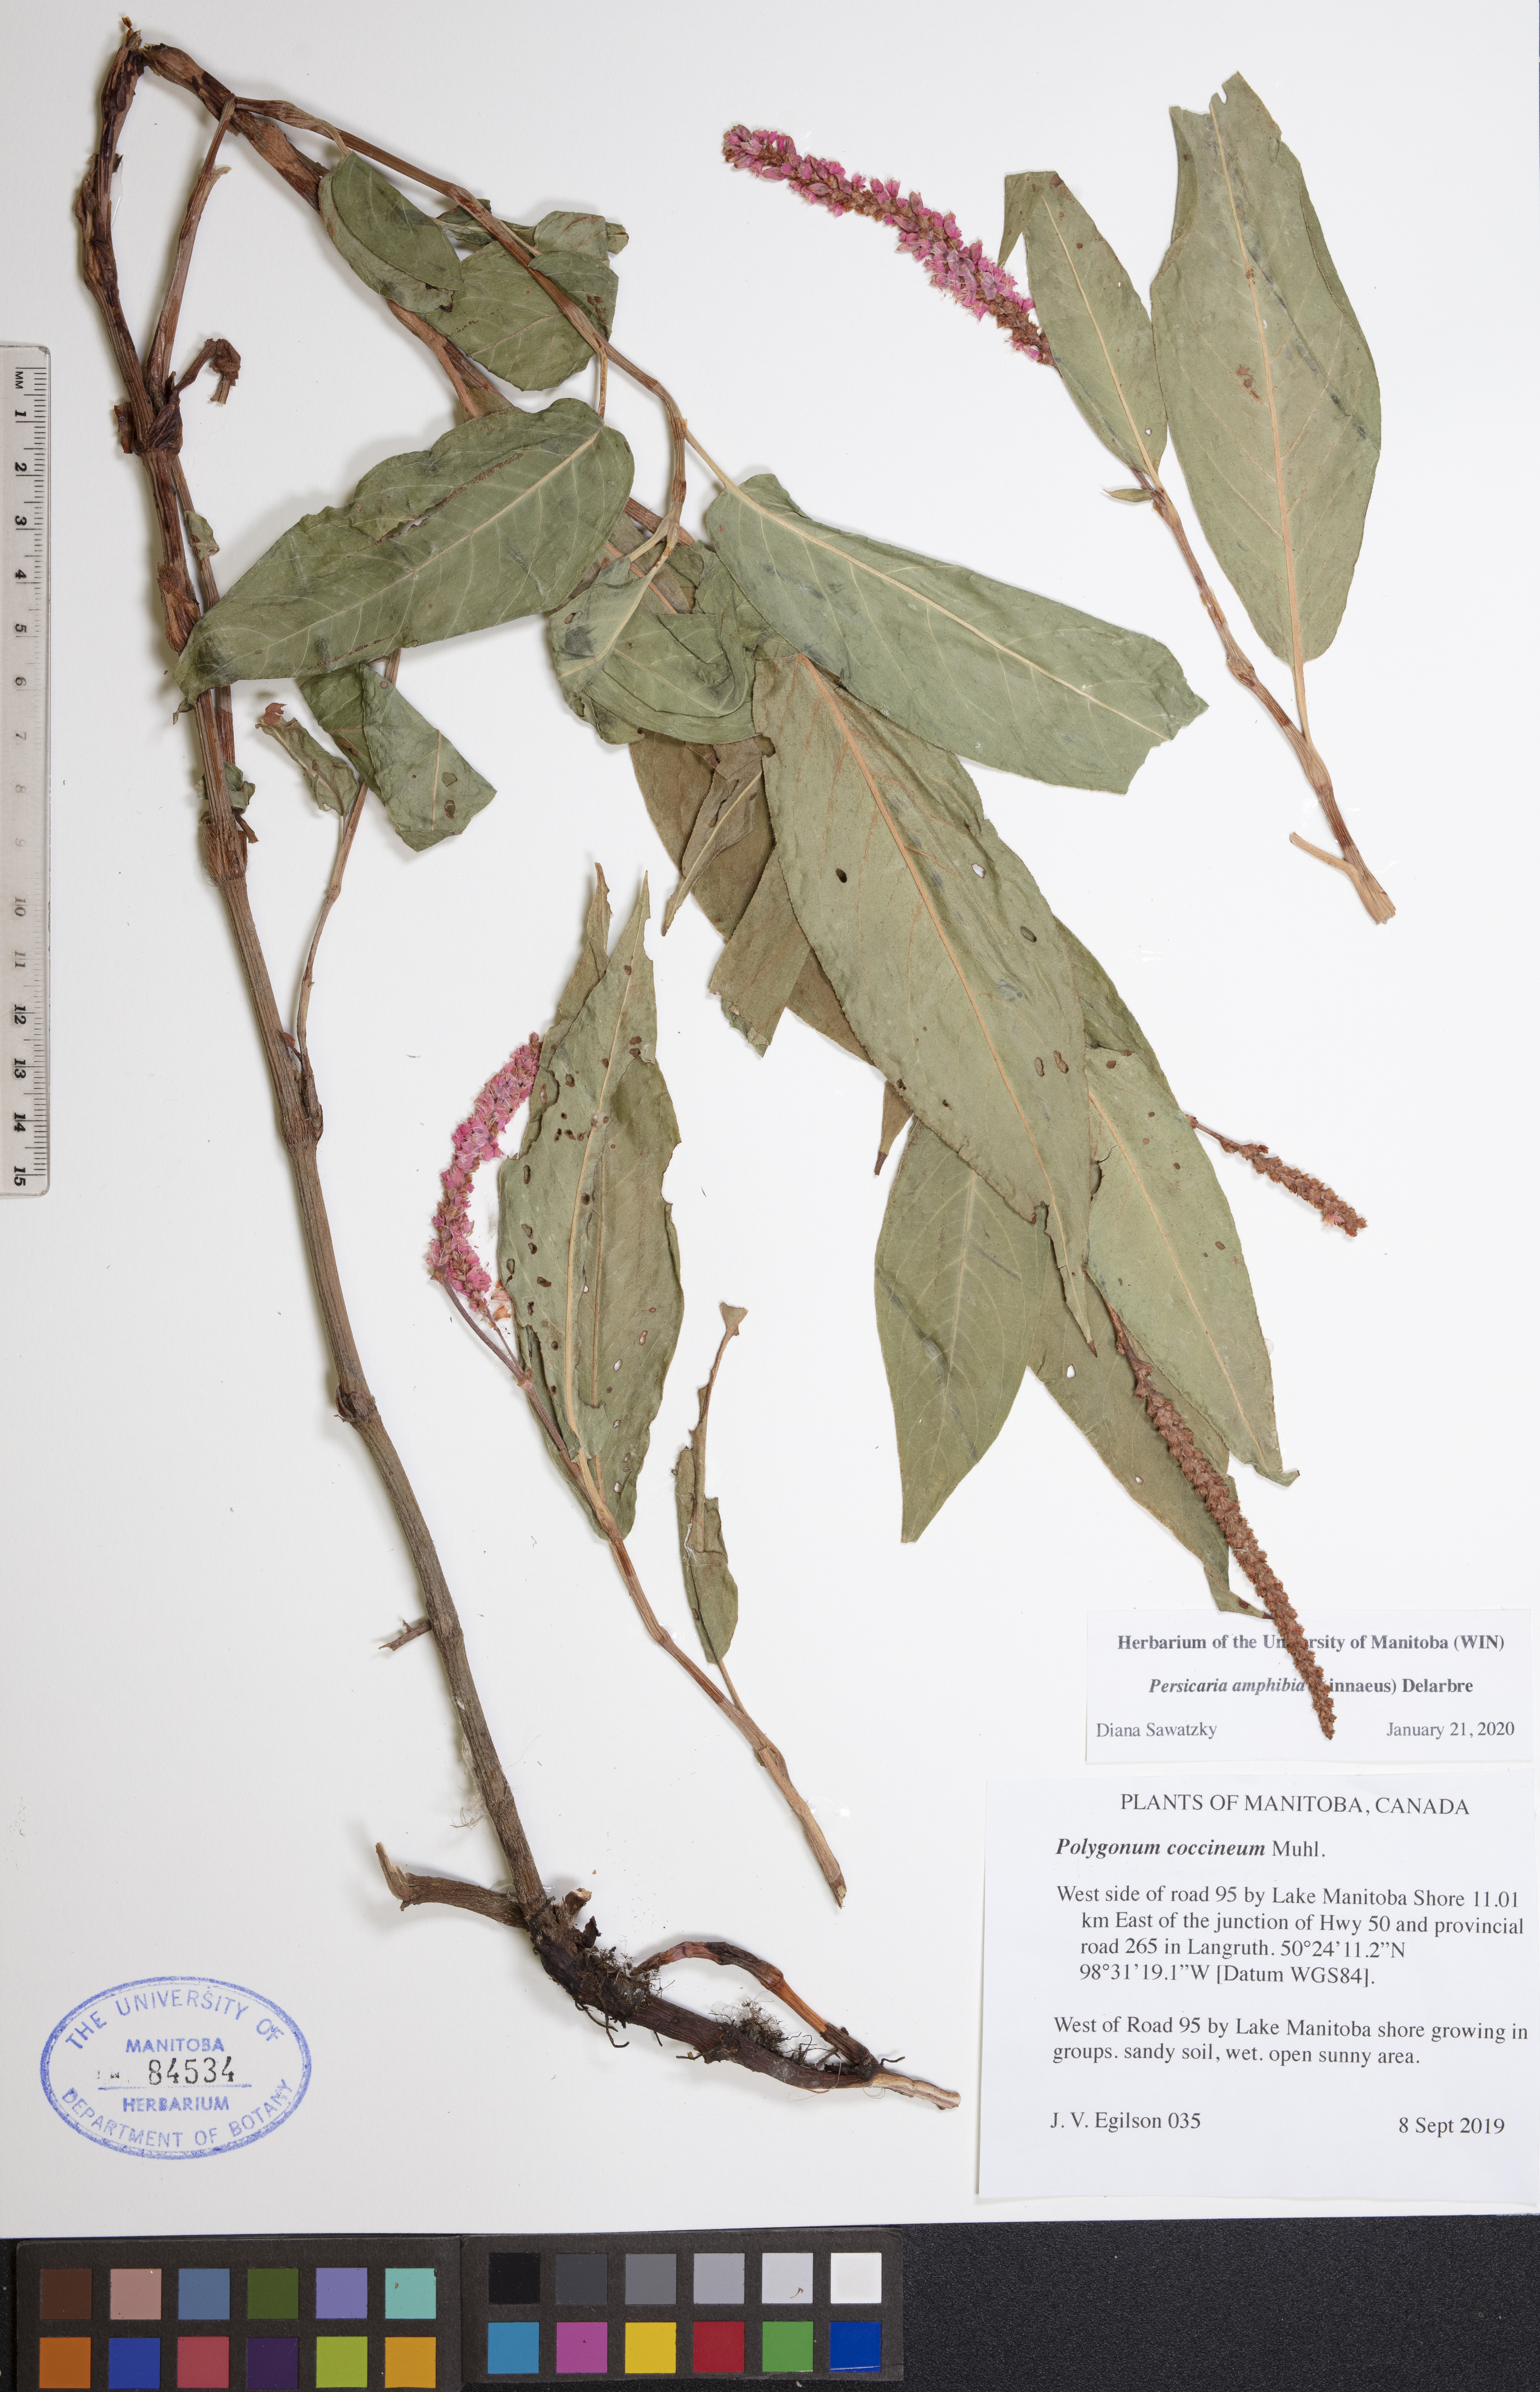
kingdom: Plantae
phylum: Tracheophyta
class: Magnoliopsida
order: Caryophyllales
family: Polygonaceae
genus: Persicaria
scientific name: Persicaria amphibia
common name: Amphibious bistort
